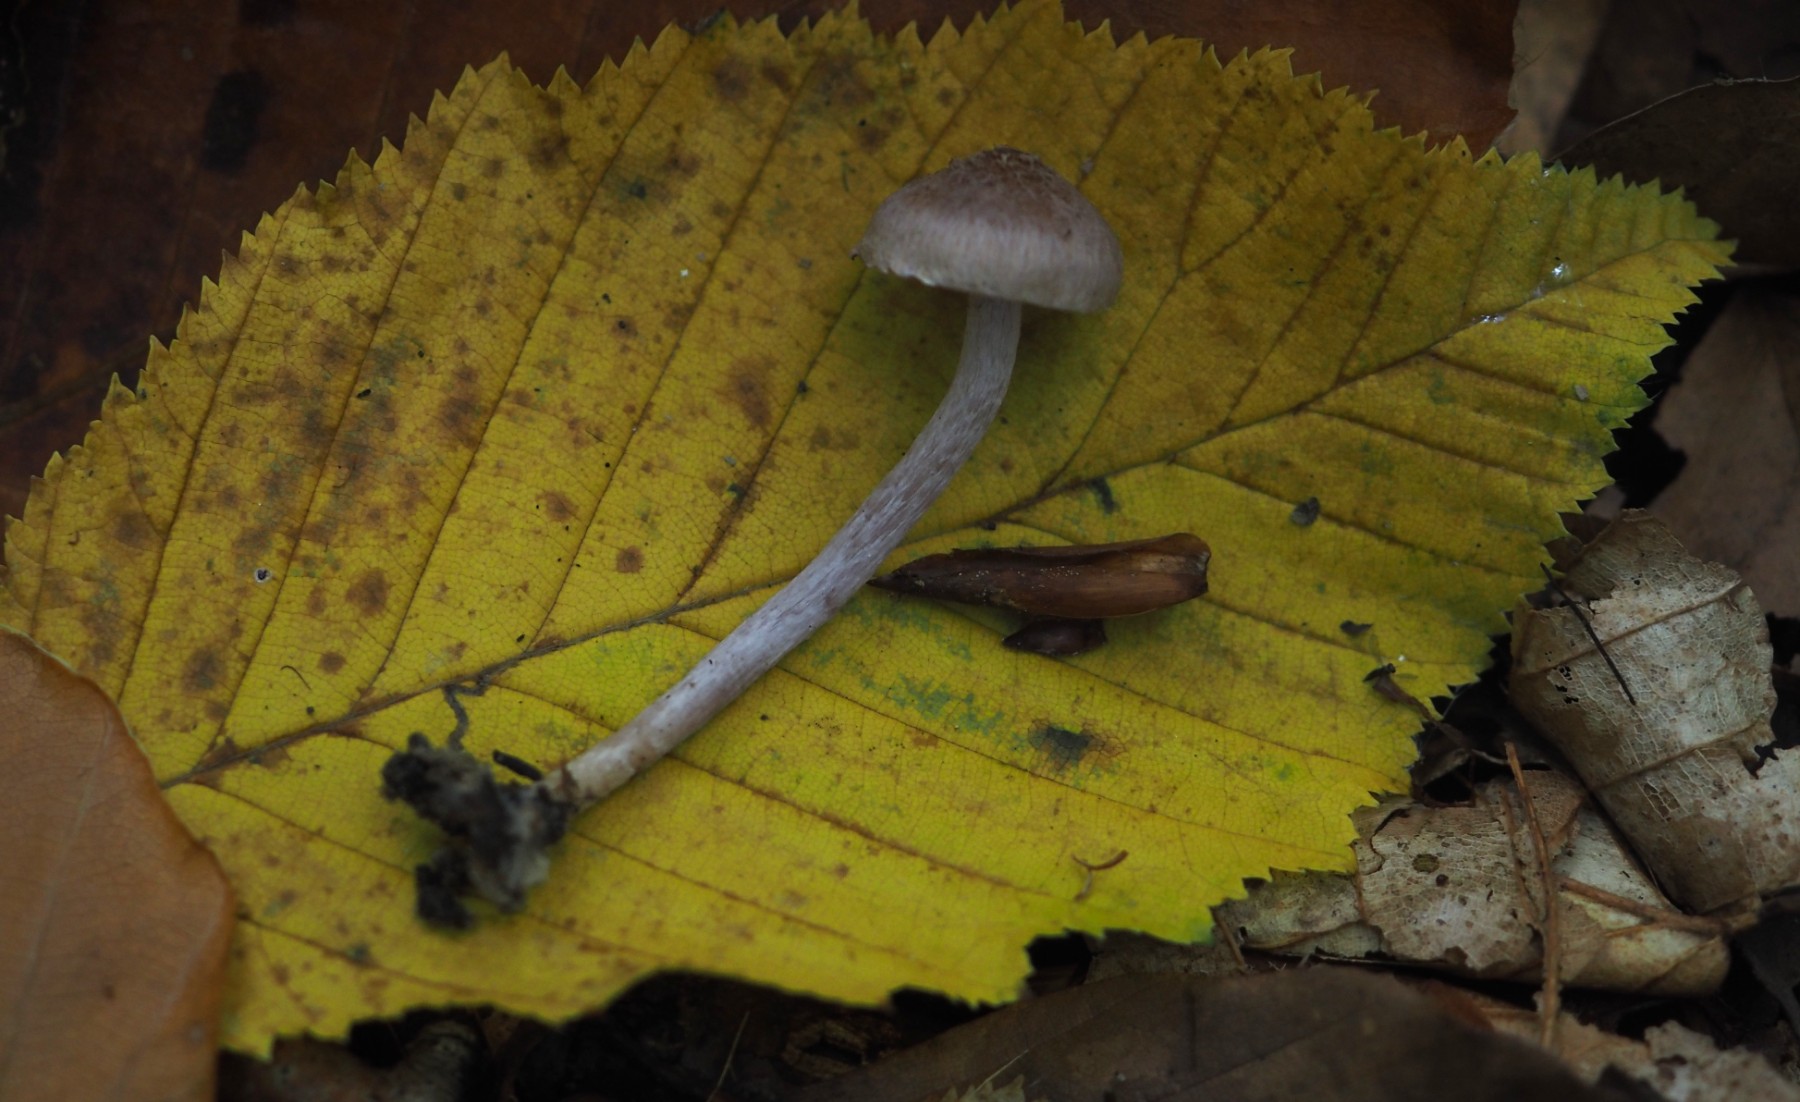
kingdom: Fungi
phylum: Basidiomycota
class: Agaricomycetes
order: Agaricales
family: Inocybaceae
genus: Inocybe
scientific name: Inocybe griseolilacina
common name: lillagrå trævlhat
